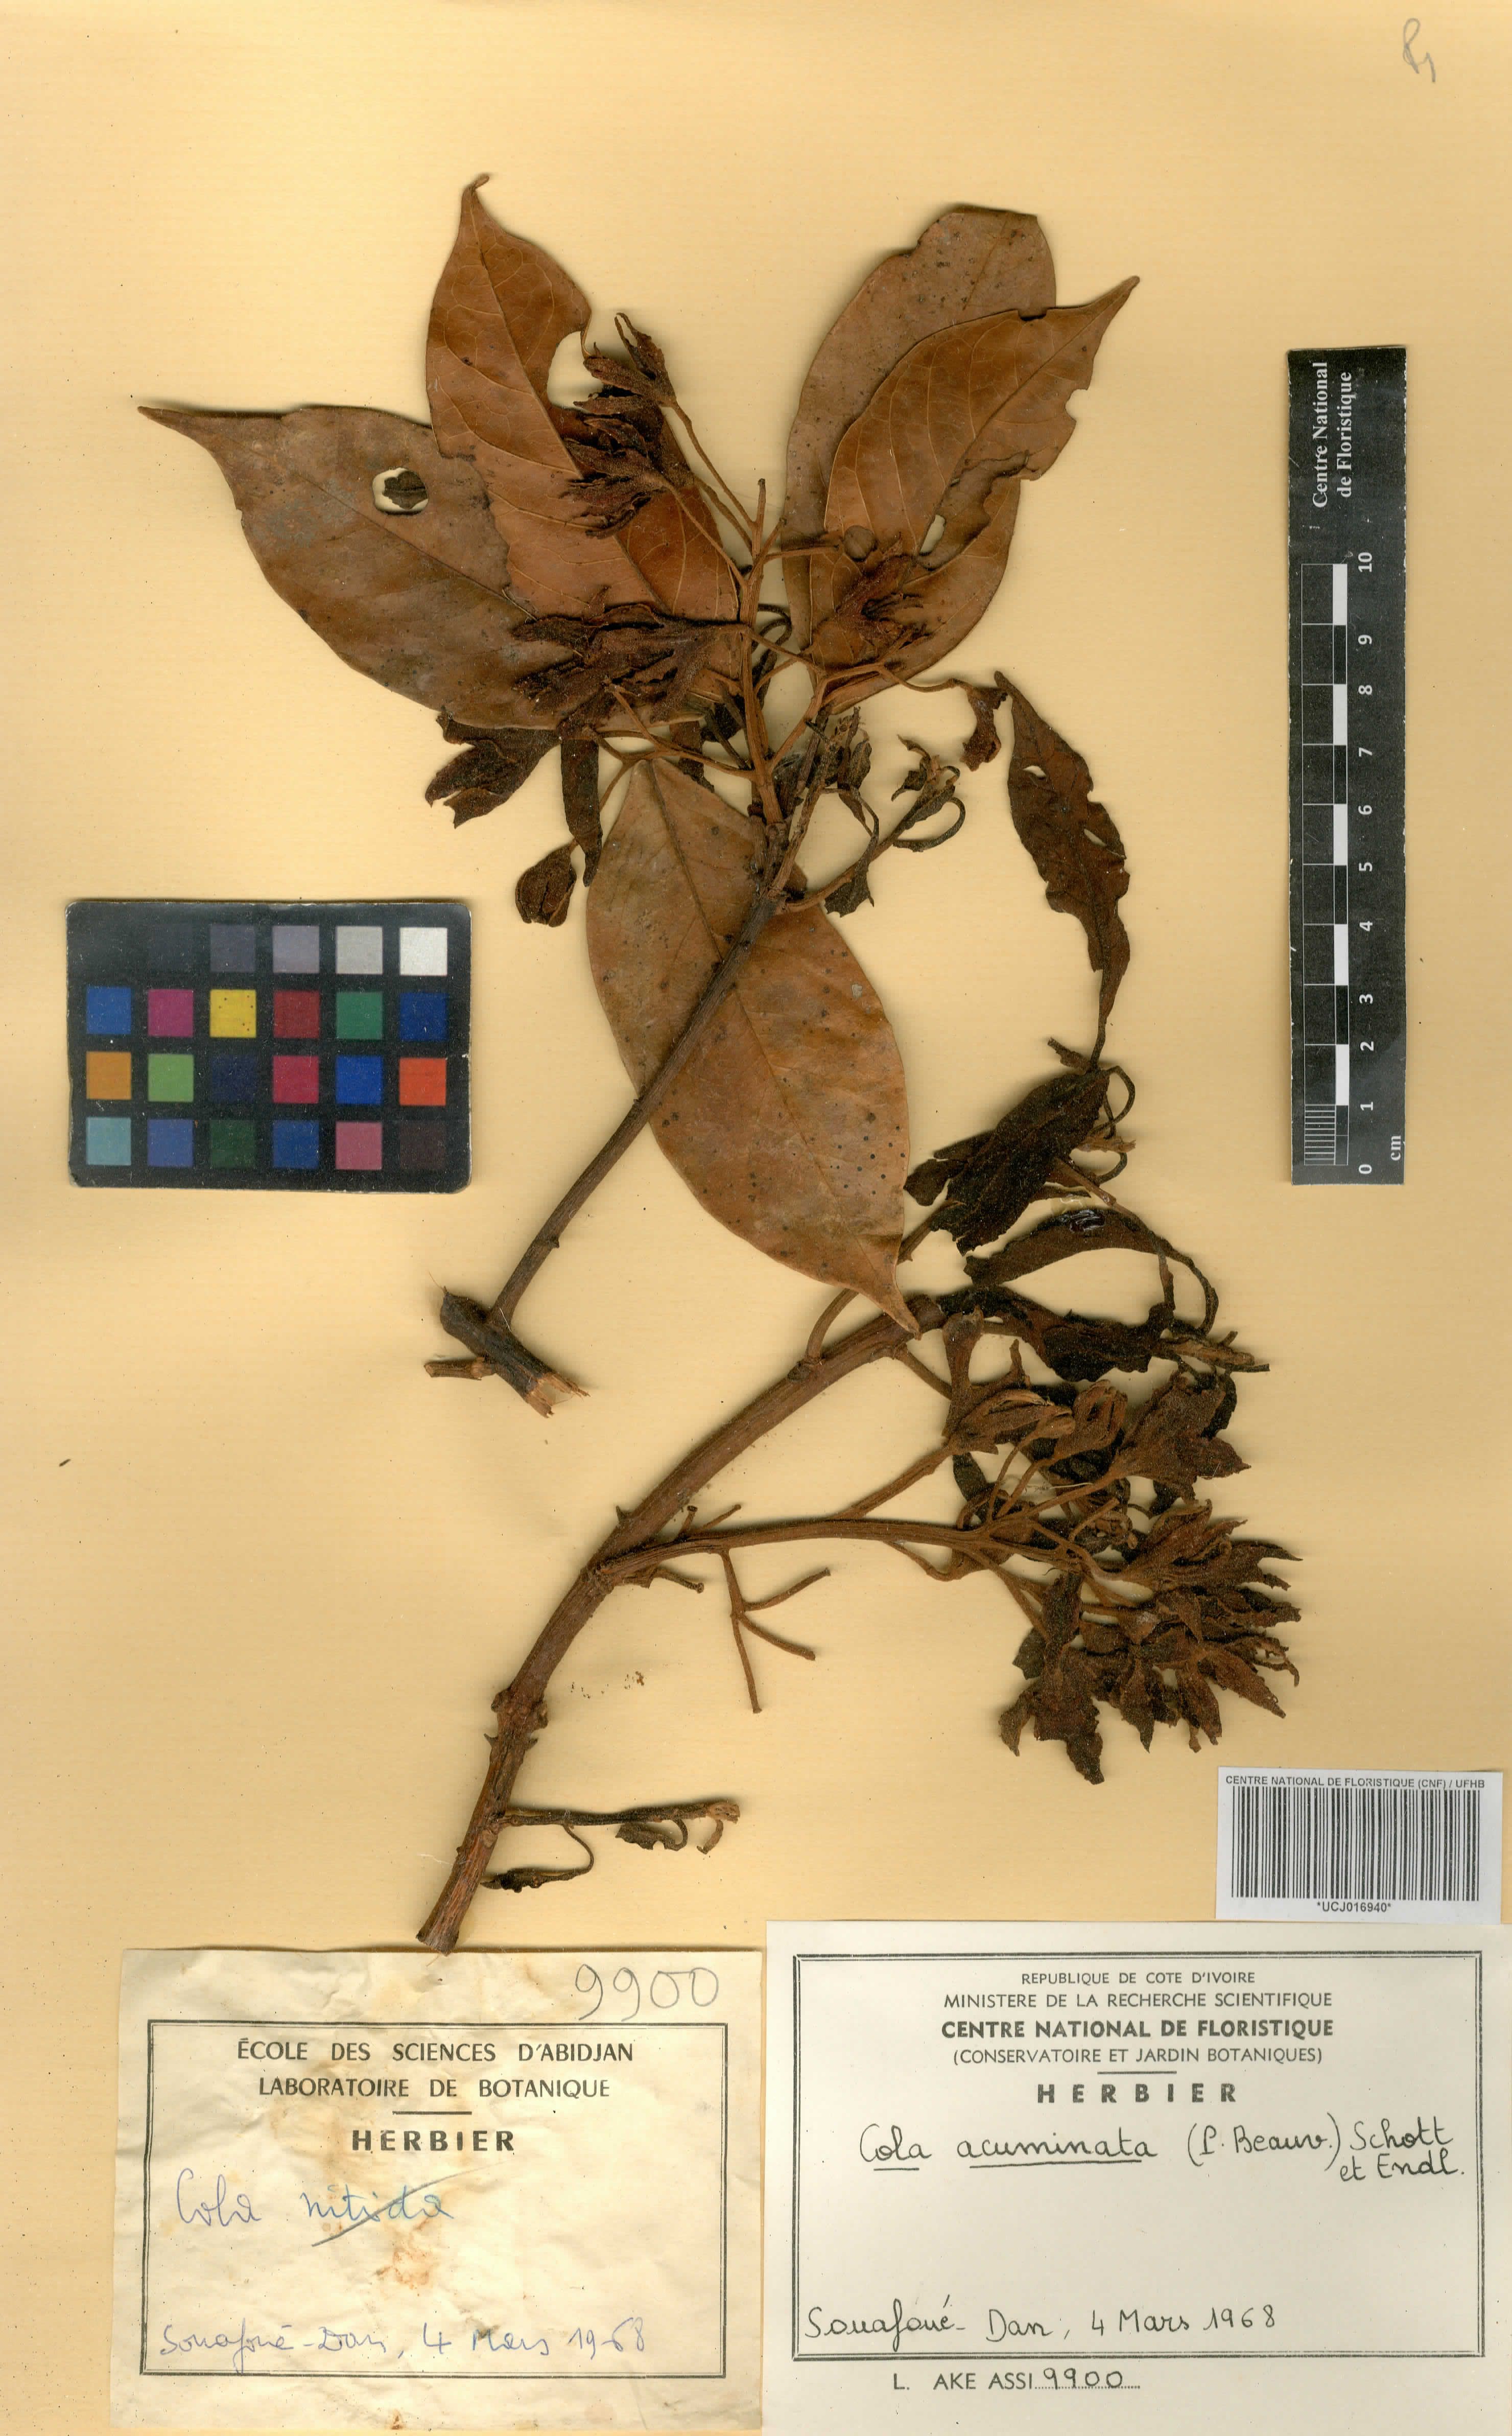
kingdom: Plantae
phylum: Tracheophyta
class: Magnoliopsida
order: Malvales
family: Malvaceae
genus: Cola
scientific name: Cola acuminata
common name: True kola
